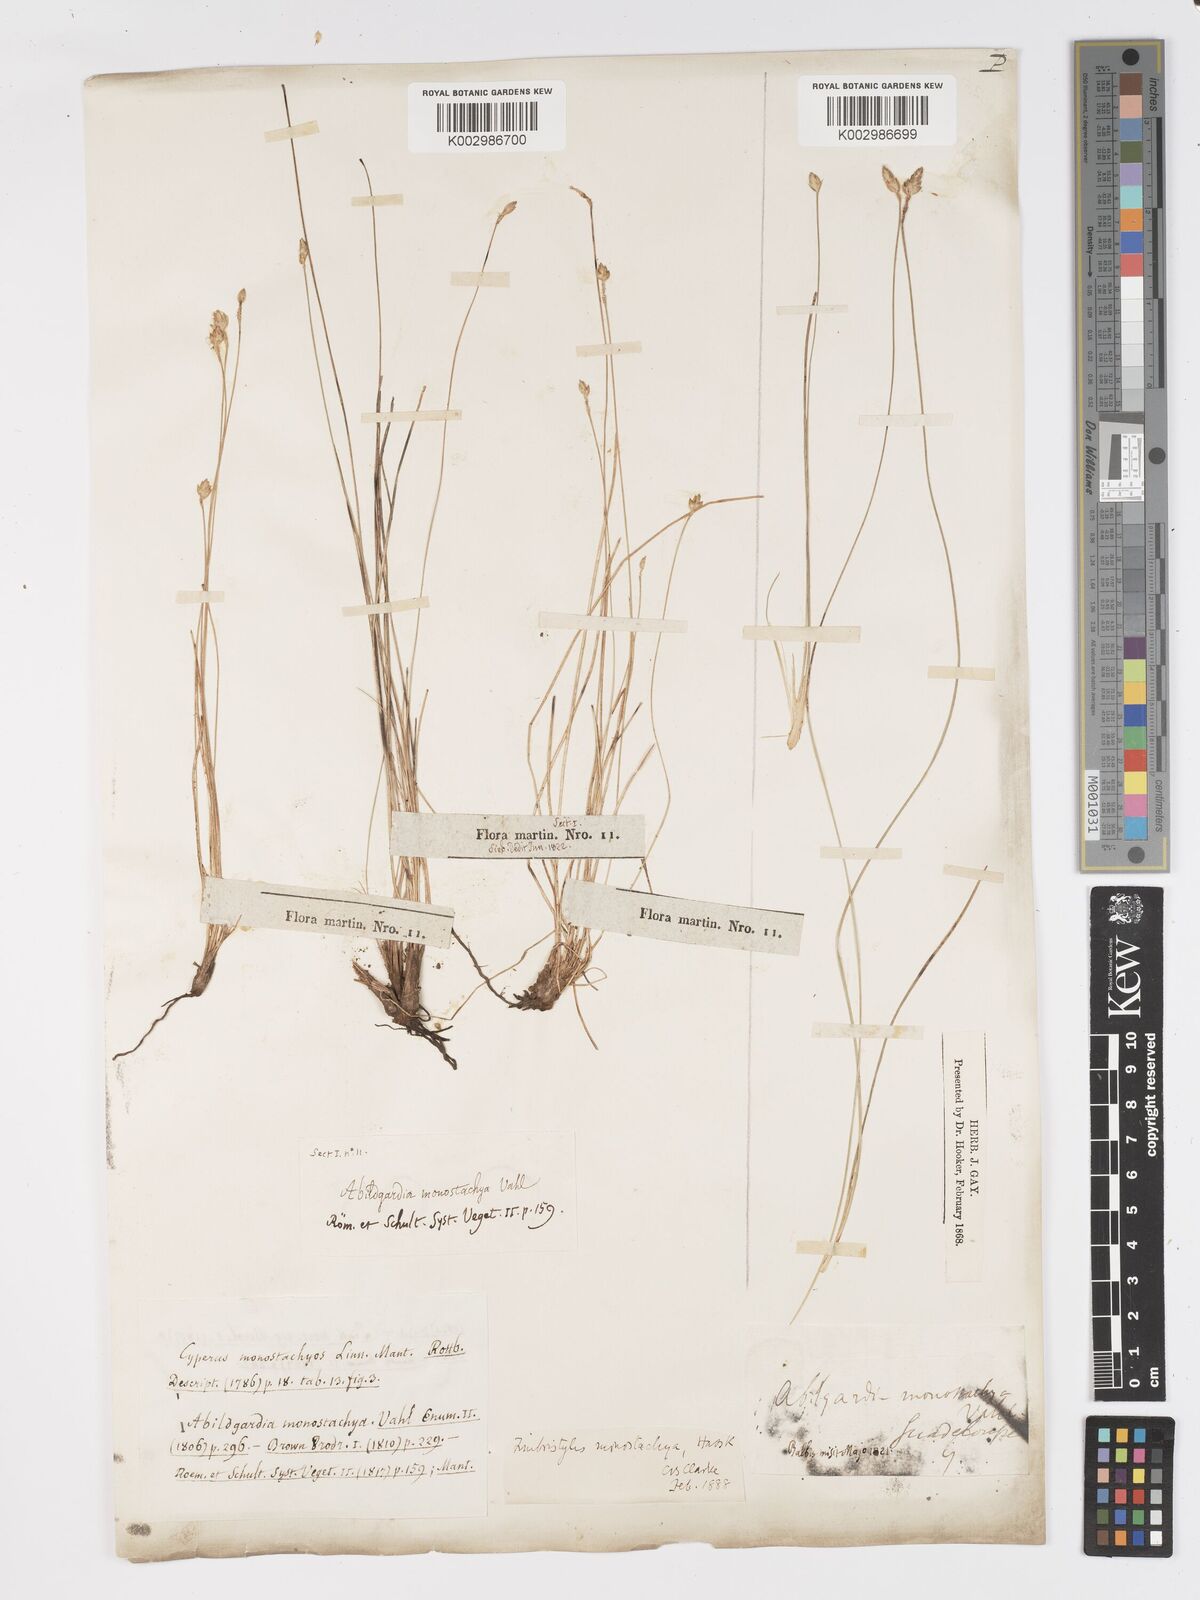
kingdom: Plantae
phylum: Tracheophyta
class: Liliopsida
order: Poales
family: Cyperaceae
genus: Abildgaardia
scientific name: Abildgaardia ovata
